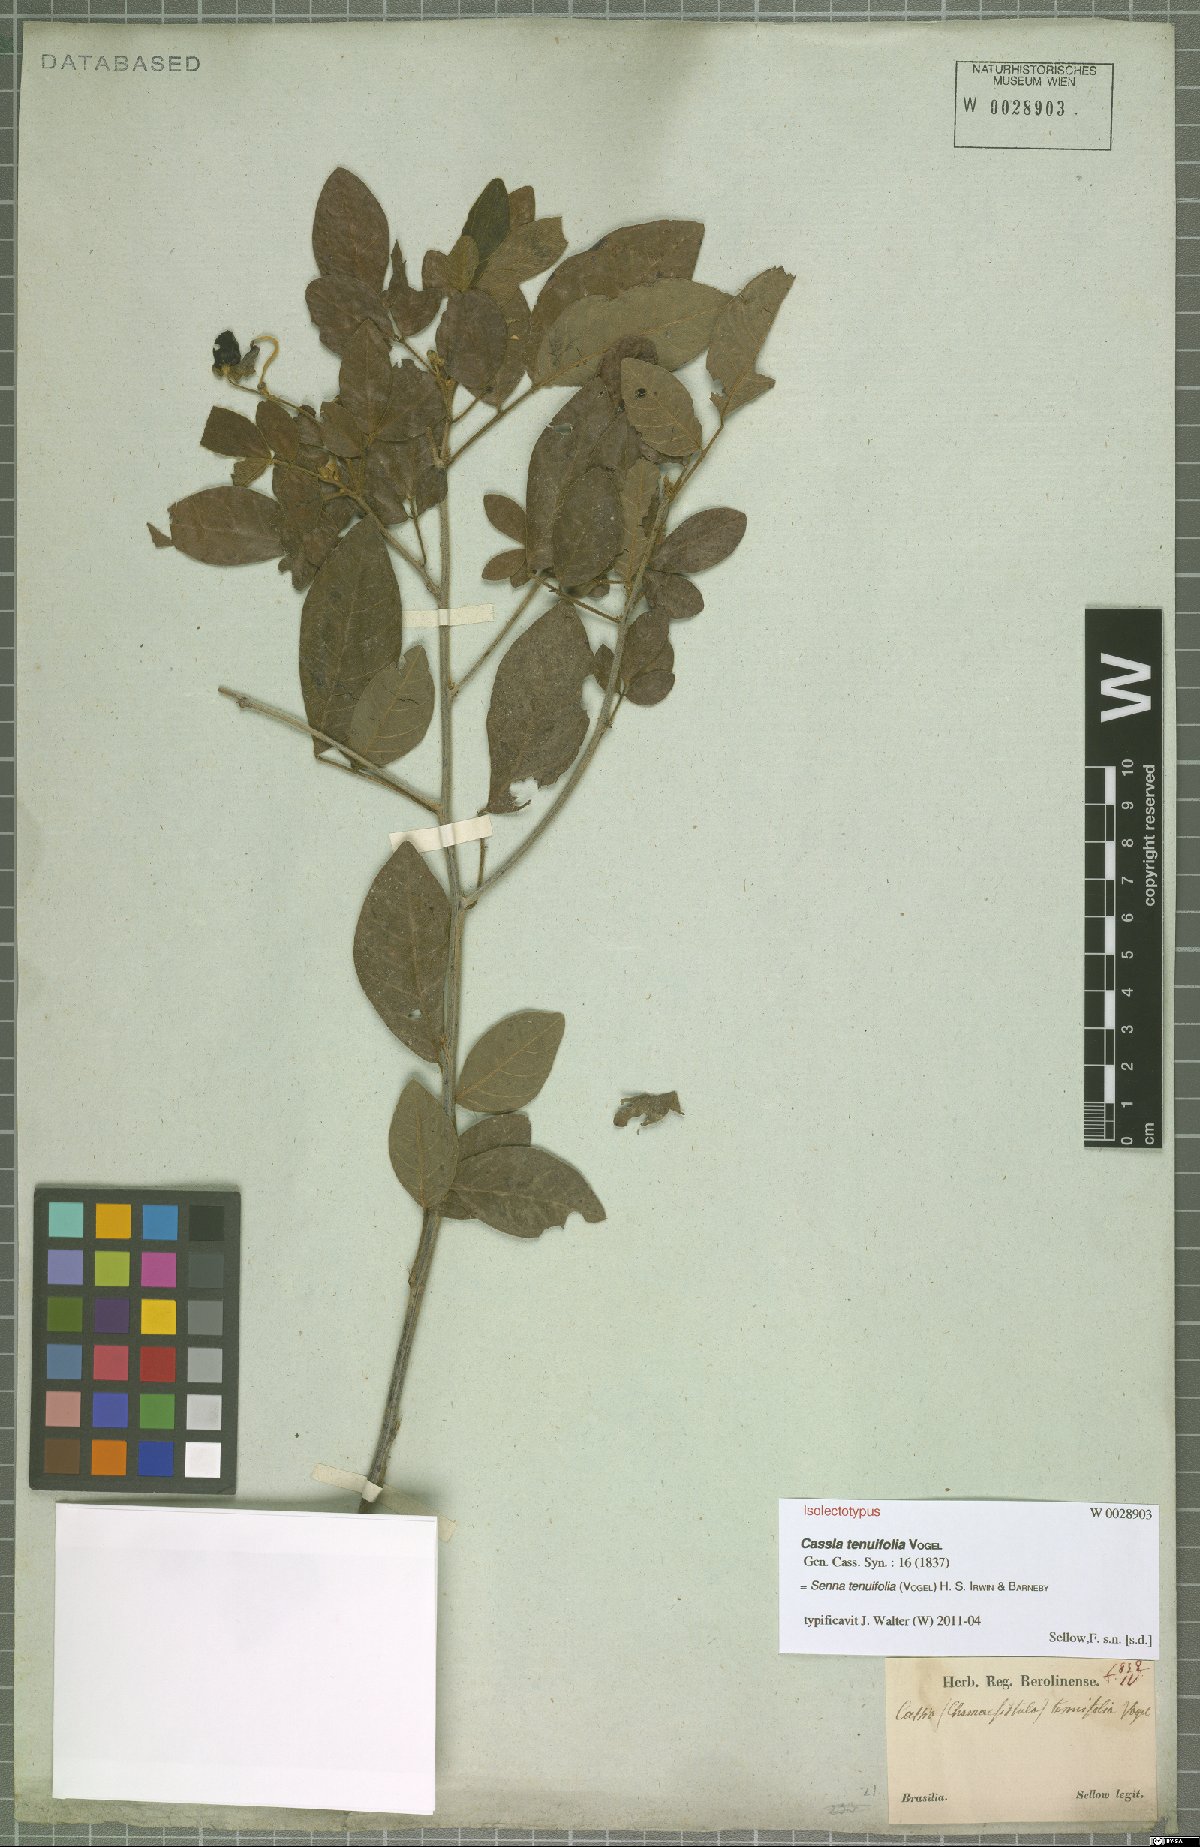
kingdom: Plantae
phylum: Tracheophyta
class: Magnoliopsida
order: Fabales
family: Fabaceae
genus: Senna
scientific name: Senna tenuifolia
